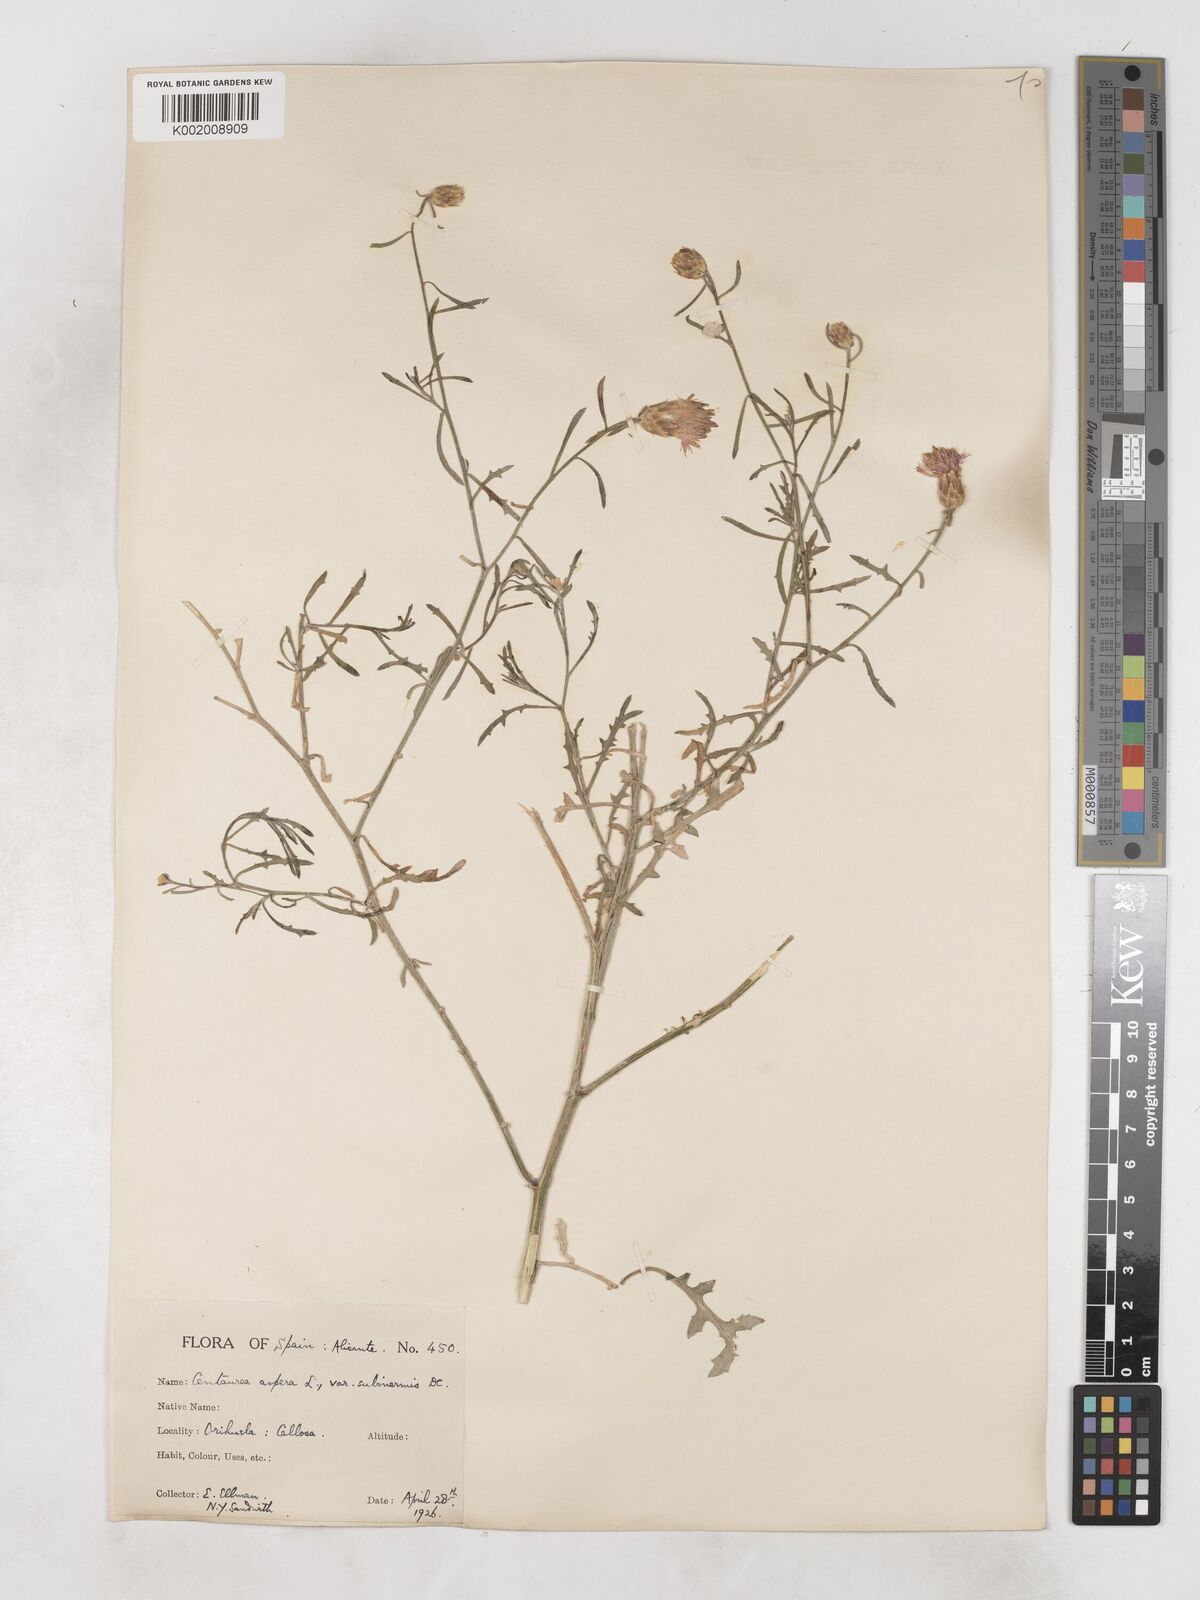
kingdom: Plantae
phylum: Tracheophyta
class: Magnoliopsida
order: Asterales
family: Asteraceae
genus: Centaurea
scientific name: Centaurea aspera
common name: Rough star-thistle
